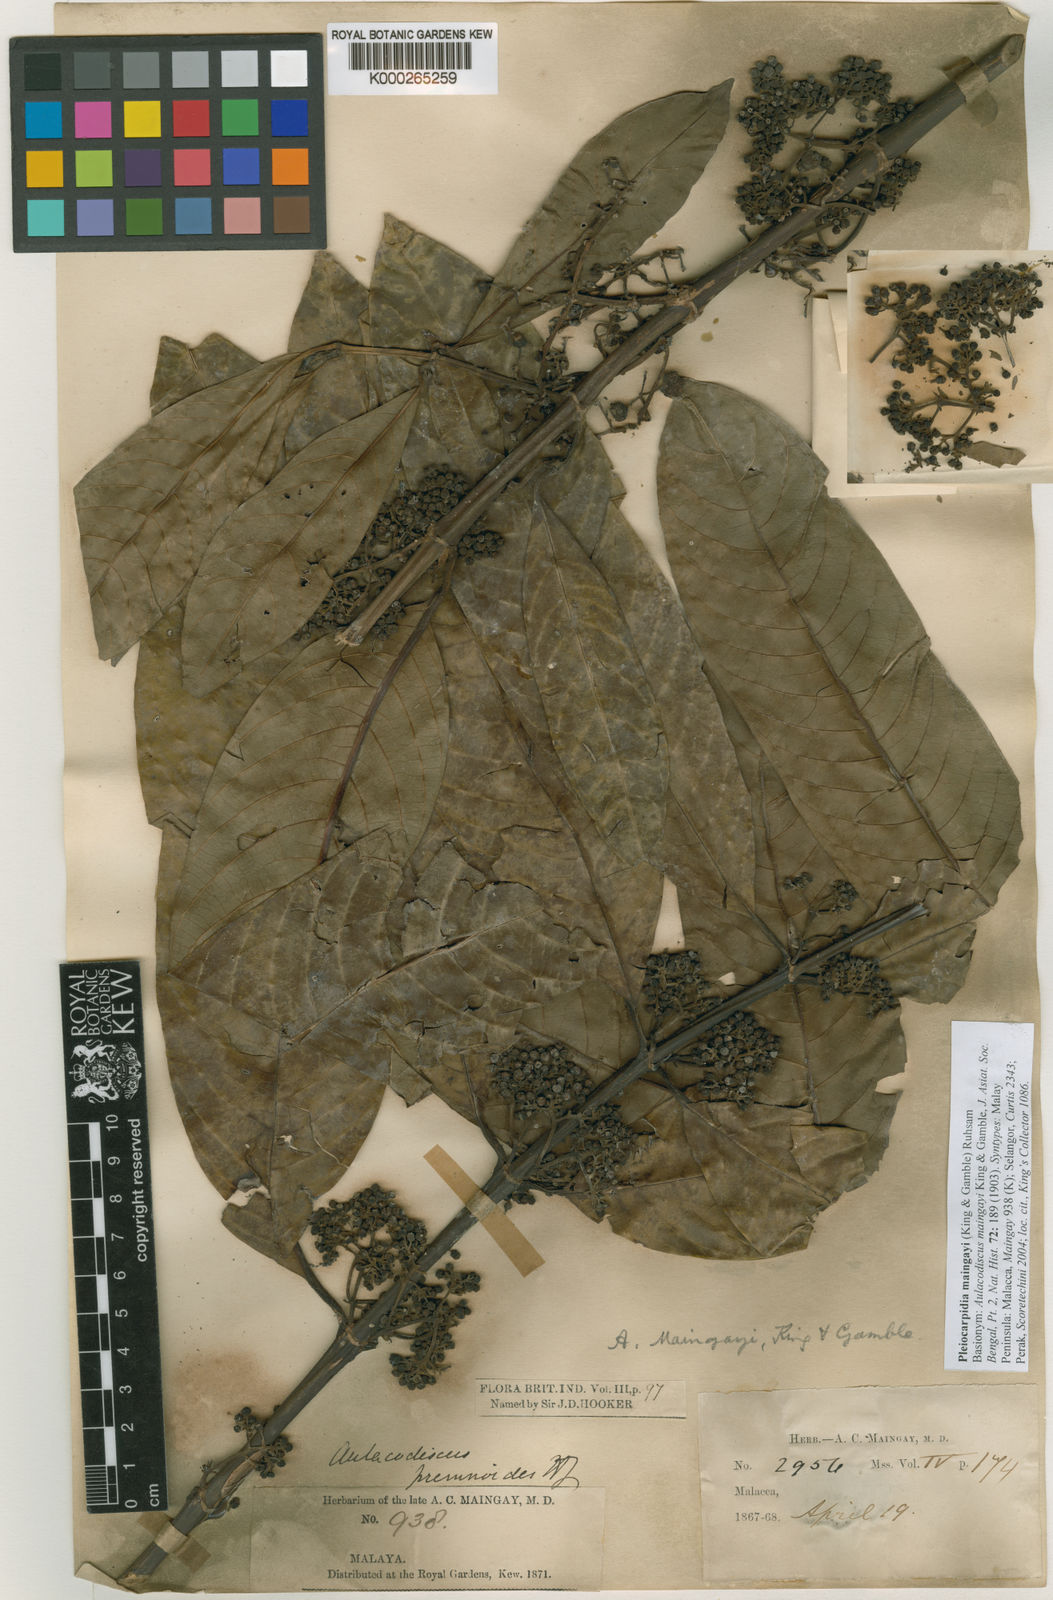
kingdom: Plantae
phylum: Tracheophyta
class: Magnoliopsida
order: Gentianales
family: Rubiaceae
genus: Urophyllum
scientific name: Urophyllum maingayi
